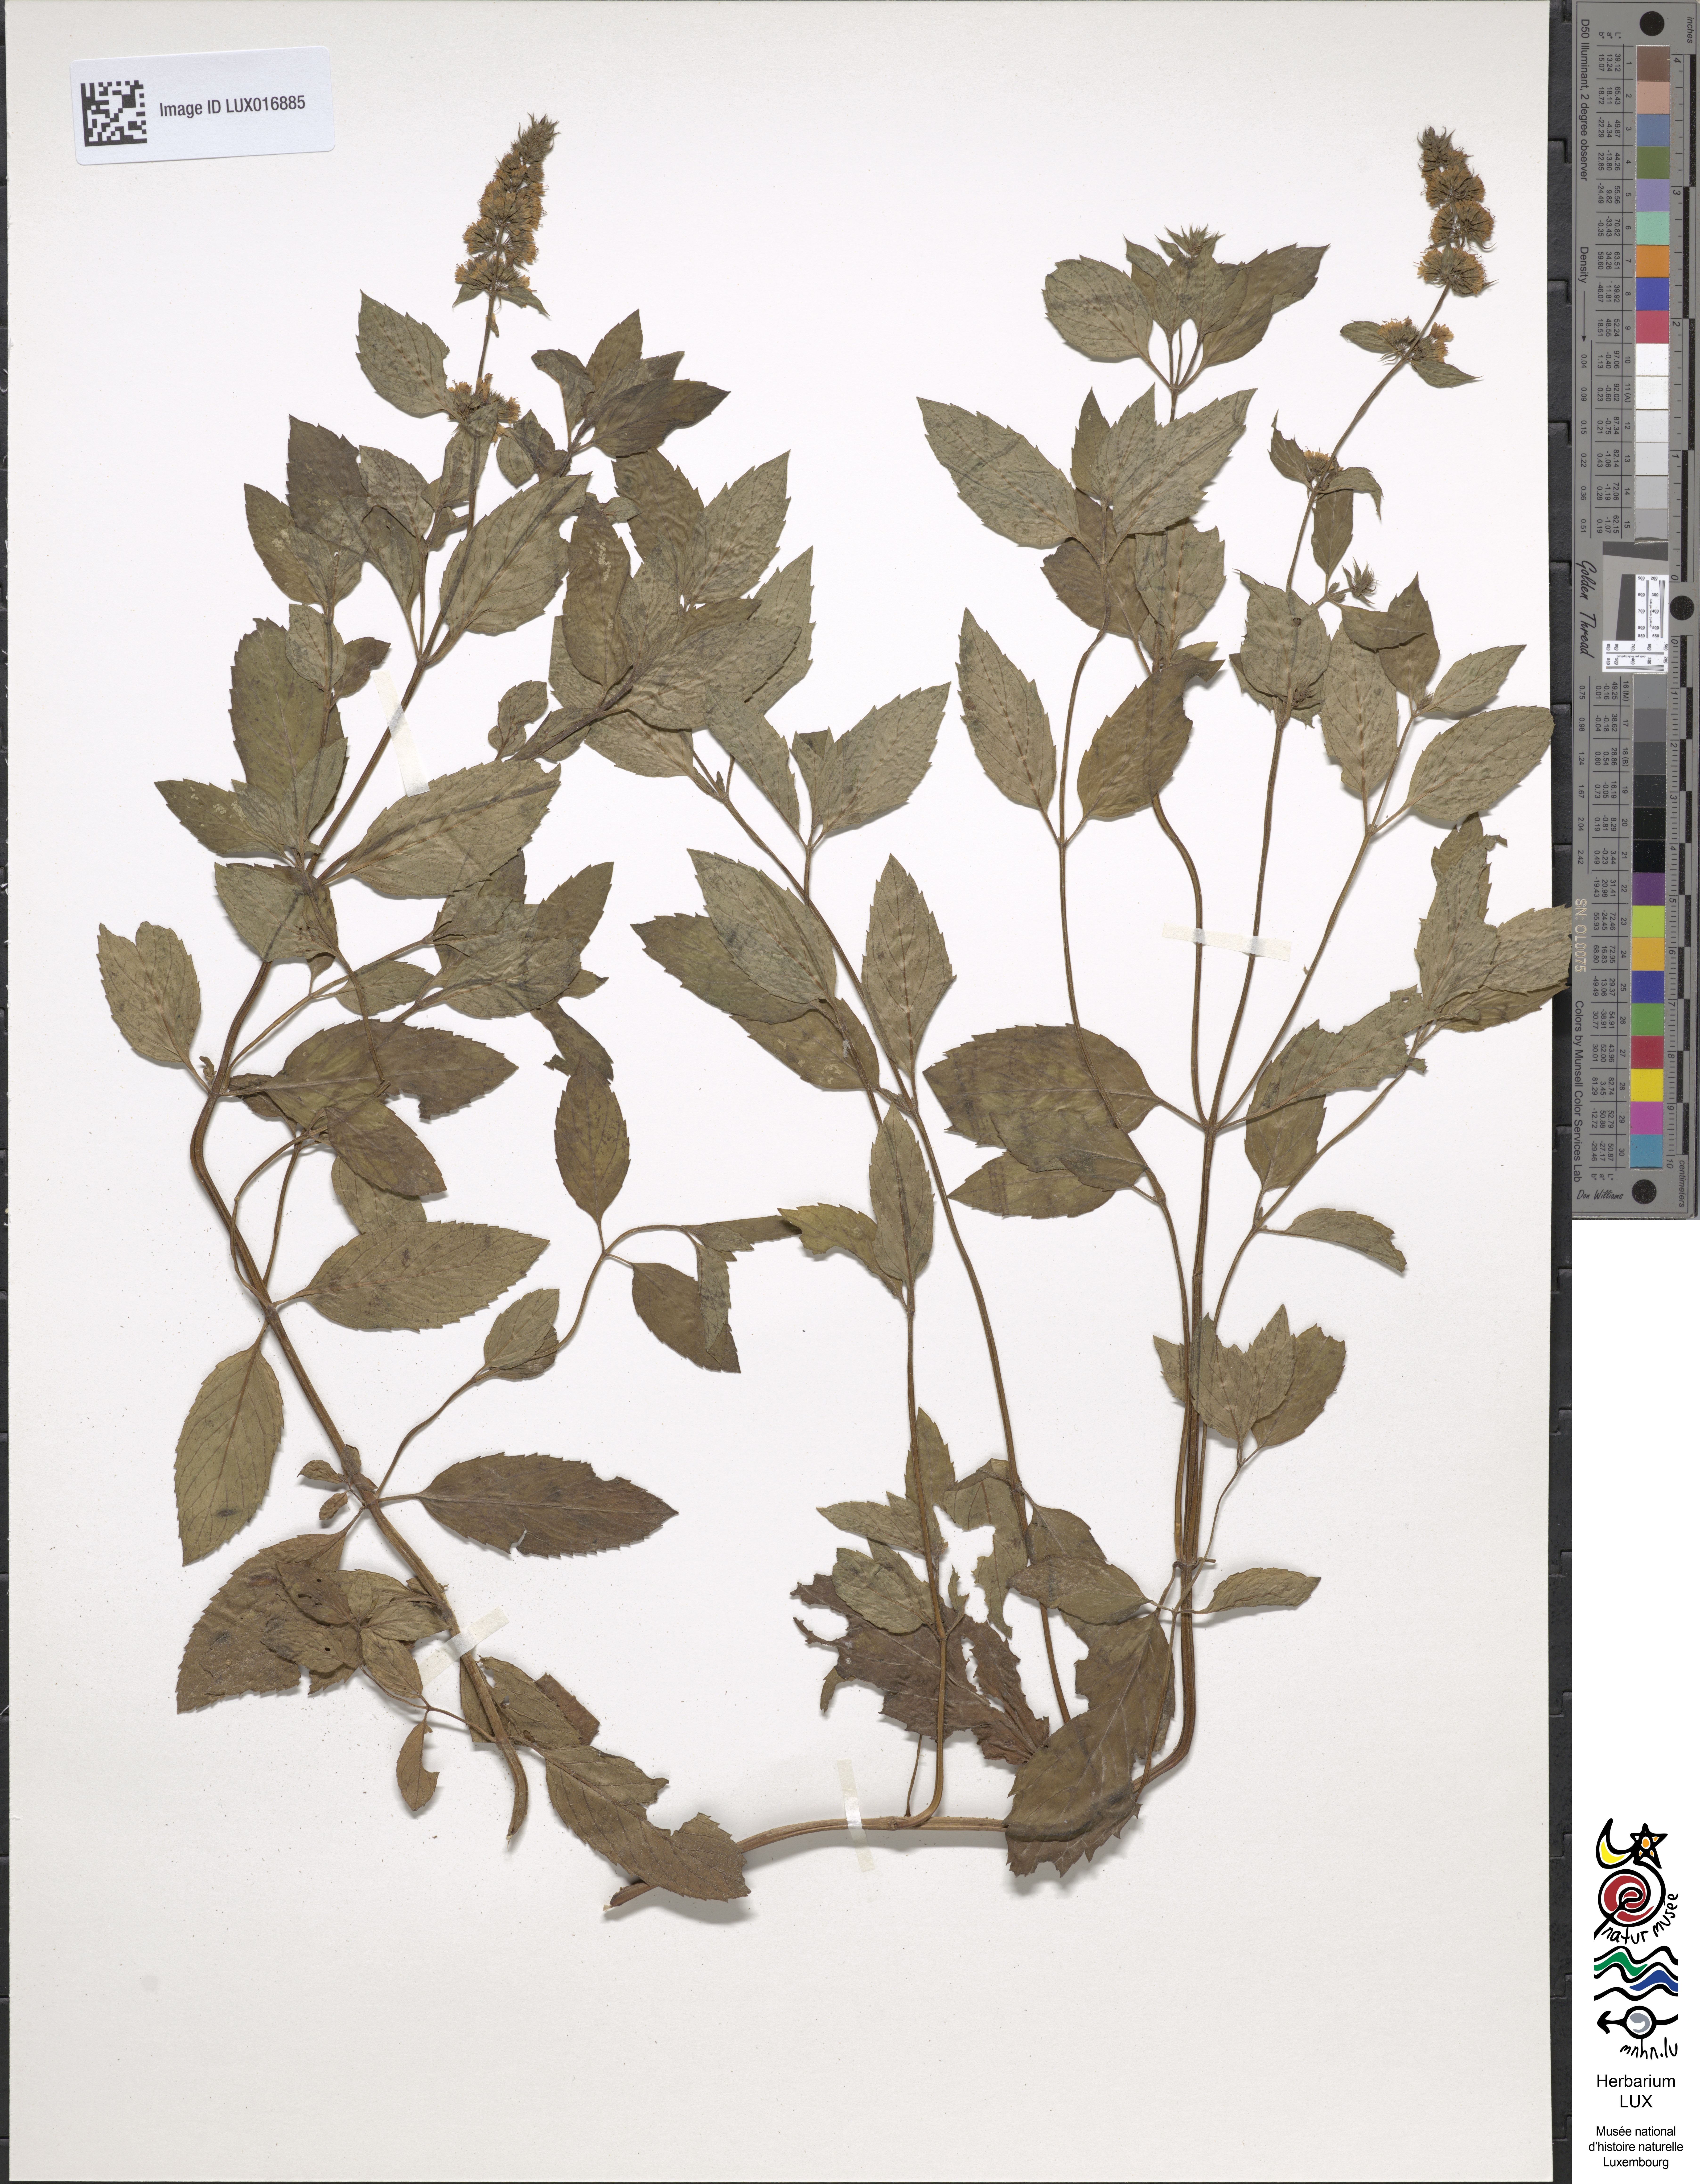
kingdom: Plantae
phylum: Tracheophyta
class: Magnoliopsida
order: Lamiales
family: Lamiaceae
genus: Mentha
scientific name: Mentha piperita
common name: Peppermint
